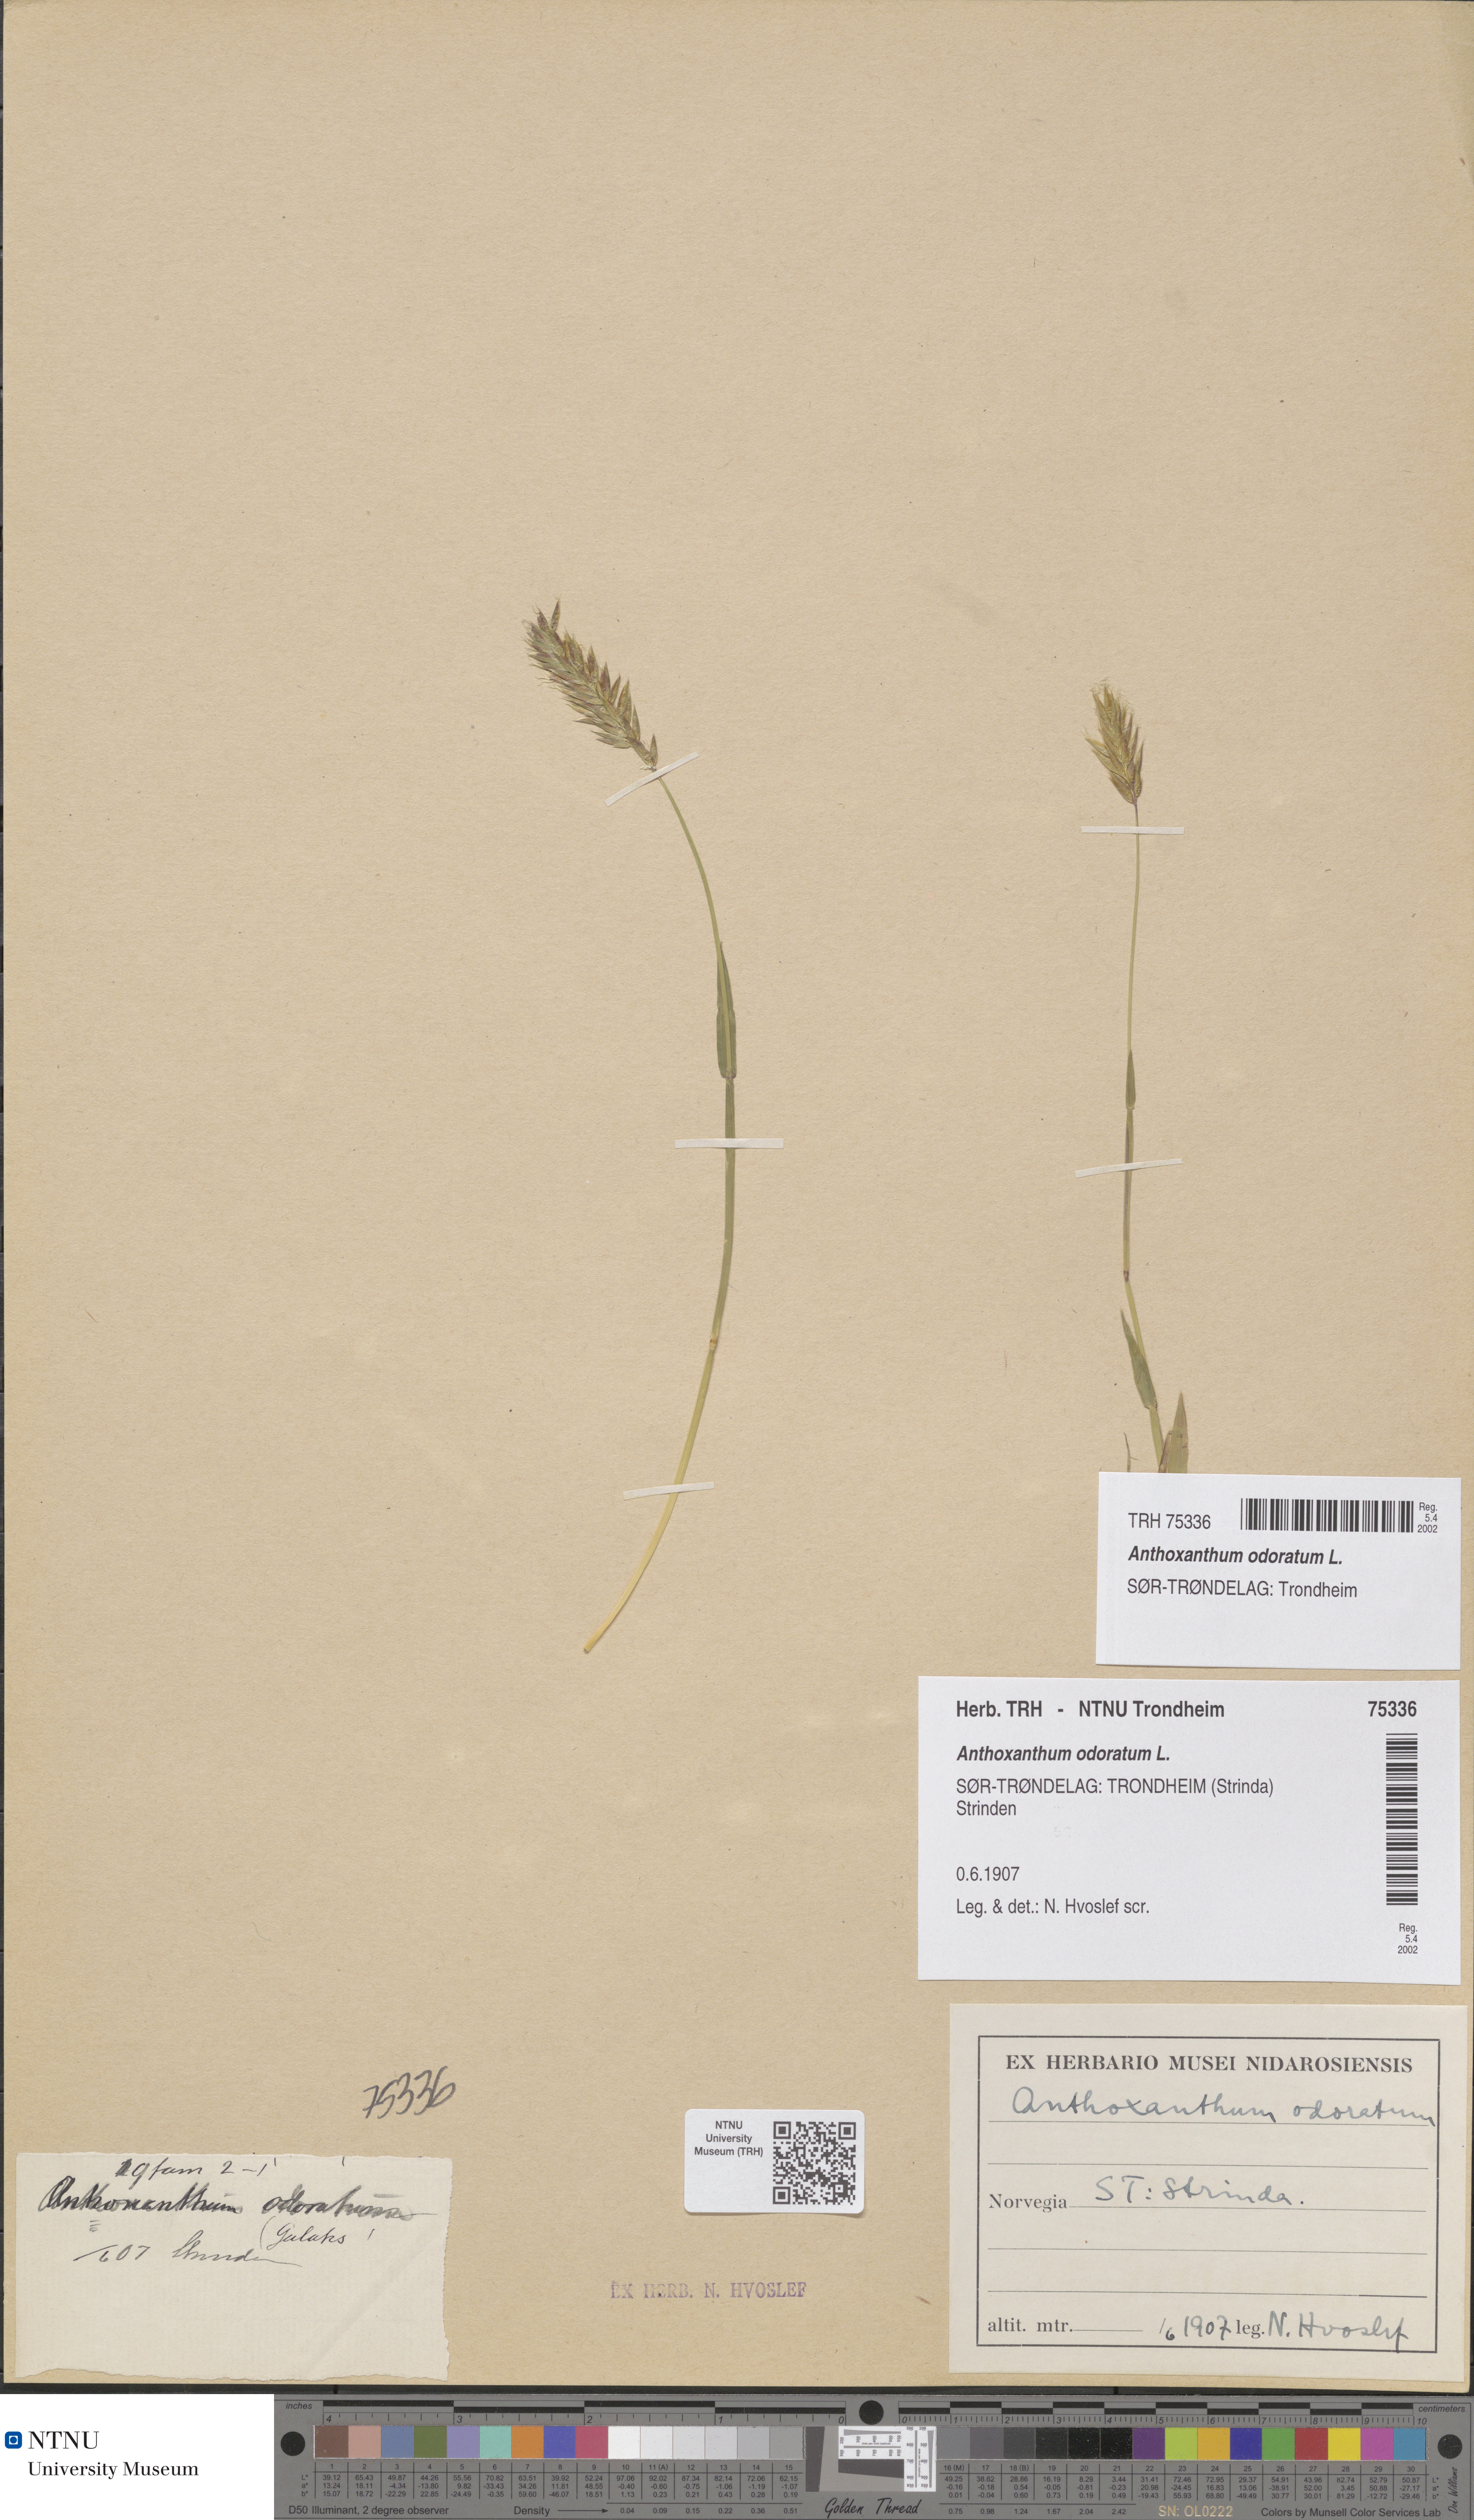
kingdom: Plantae
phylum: Tracheophyta
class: Liliopsida
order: Poales
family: Poaceae
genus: Anthoxanthum
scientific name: Anthoxanthum odoratum
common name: Sweet vernalgrass
